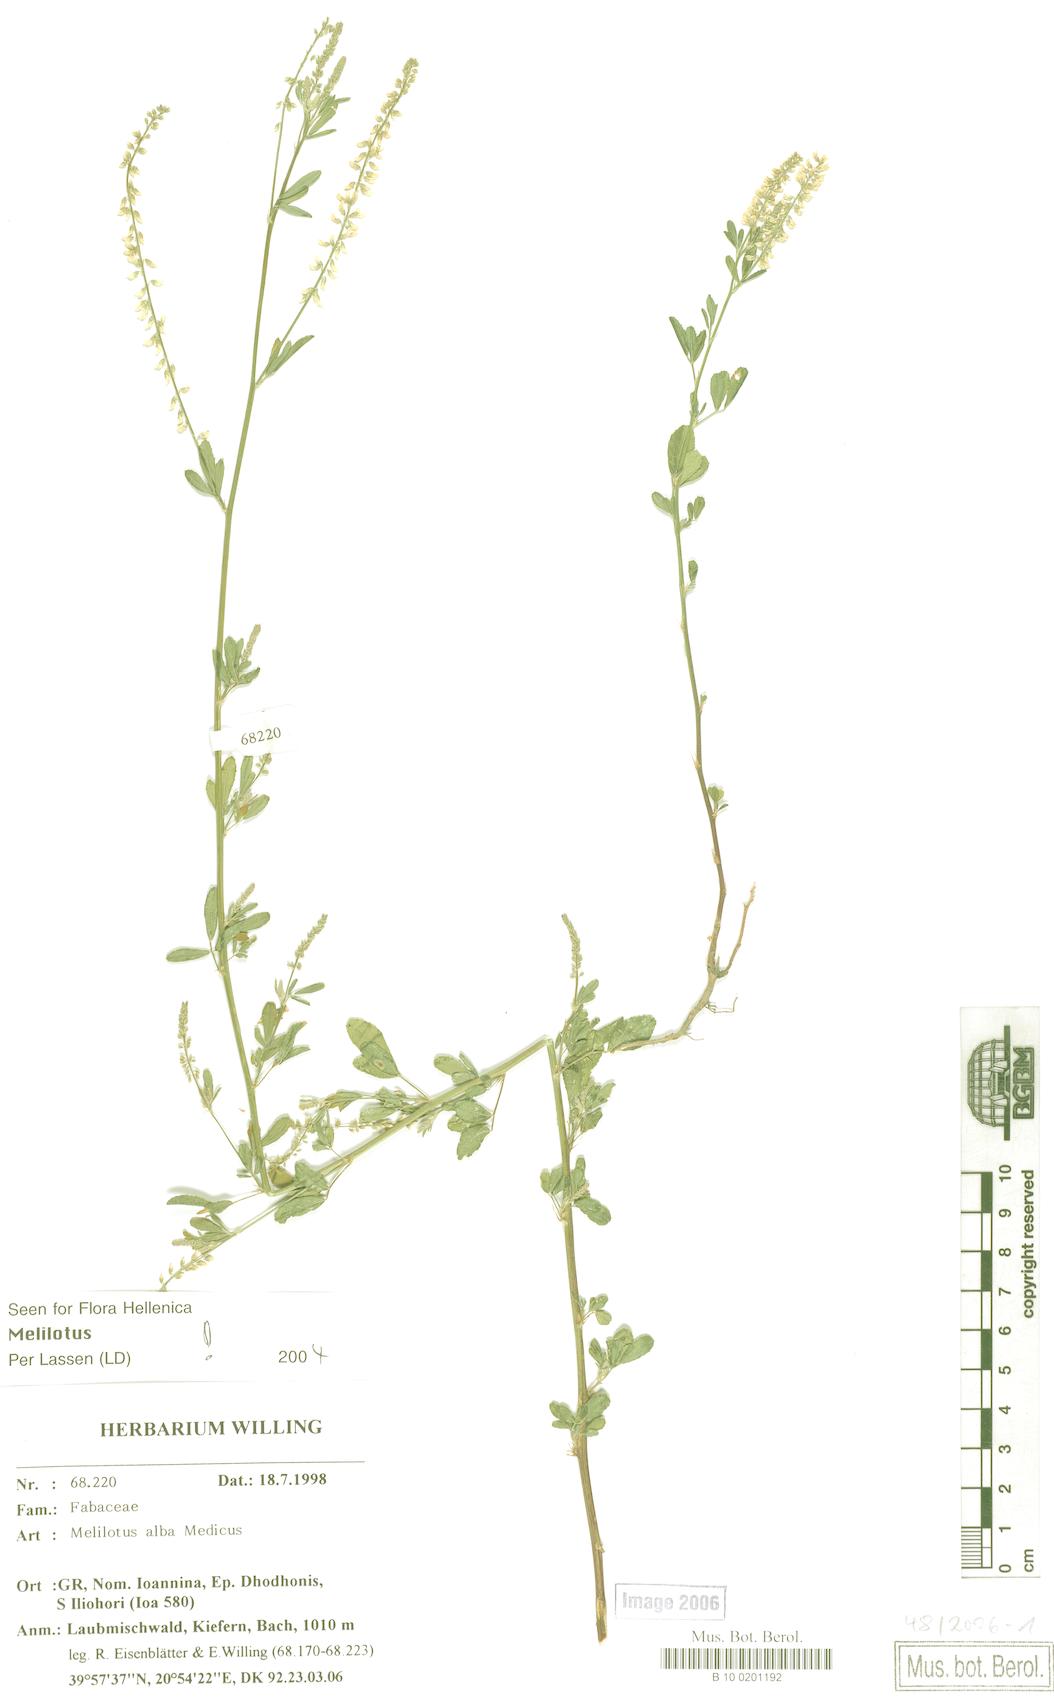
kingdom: Plantae
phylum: Tracheophyta
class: Magnoliopsida
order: Fabales
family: Fabaceae
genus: Melilotus
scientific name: Melilotus albus
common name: White melilot
